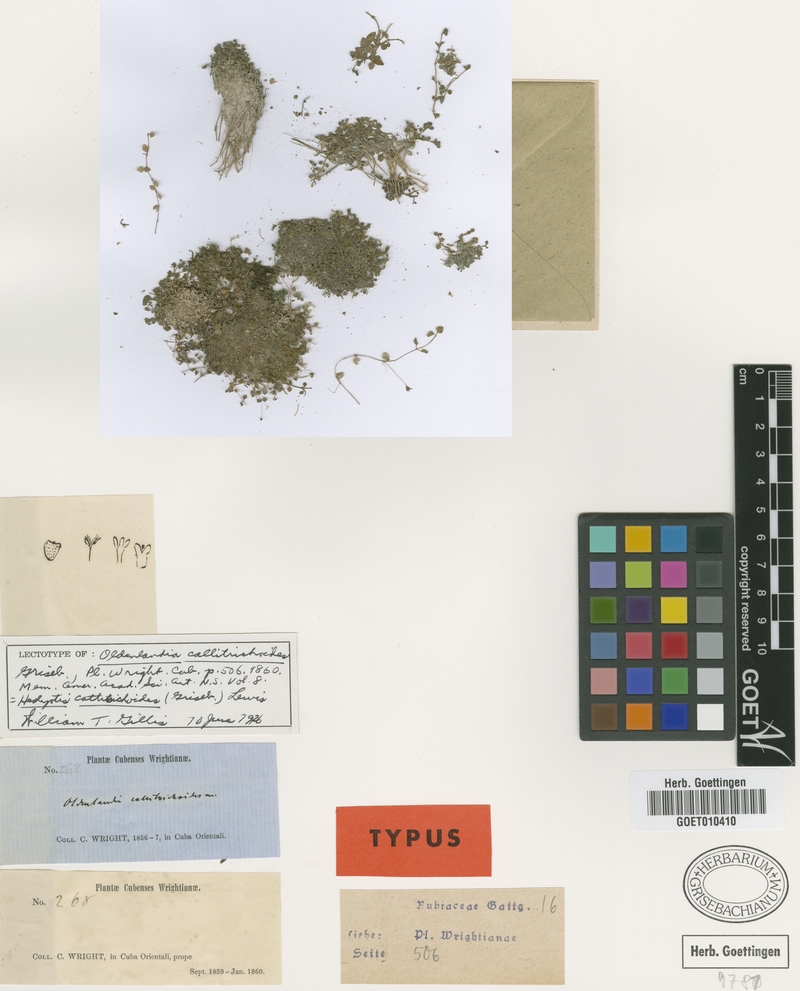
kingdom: Plantae
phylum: Tracheophyta
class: Magnoliopsida
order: Gentianales
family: Rubiaceae
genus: Oldenlandiopsis
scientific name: Oldenlandiopsis callitrichoides
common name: Creeping-bluet
